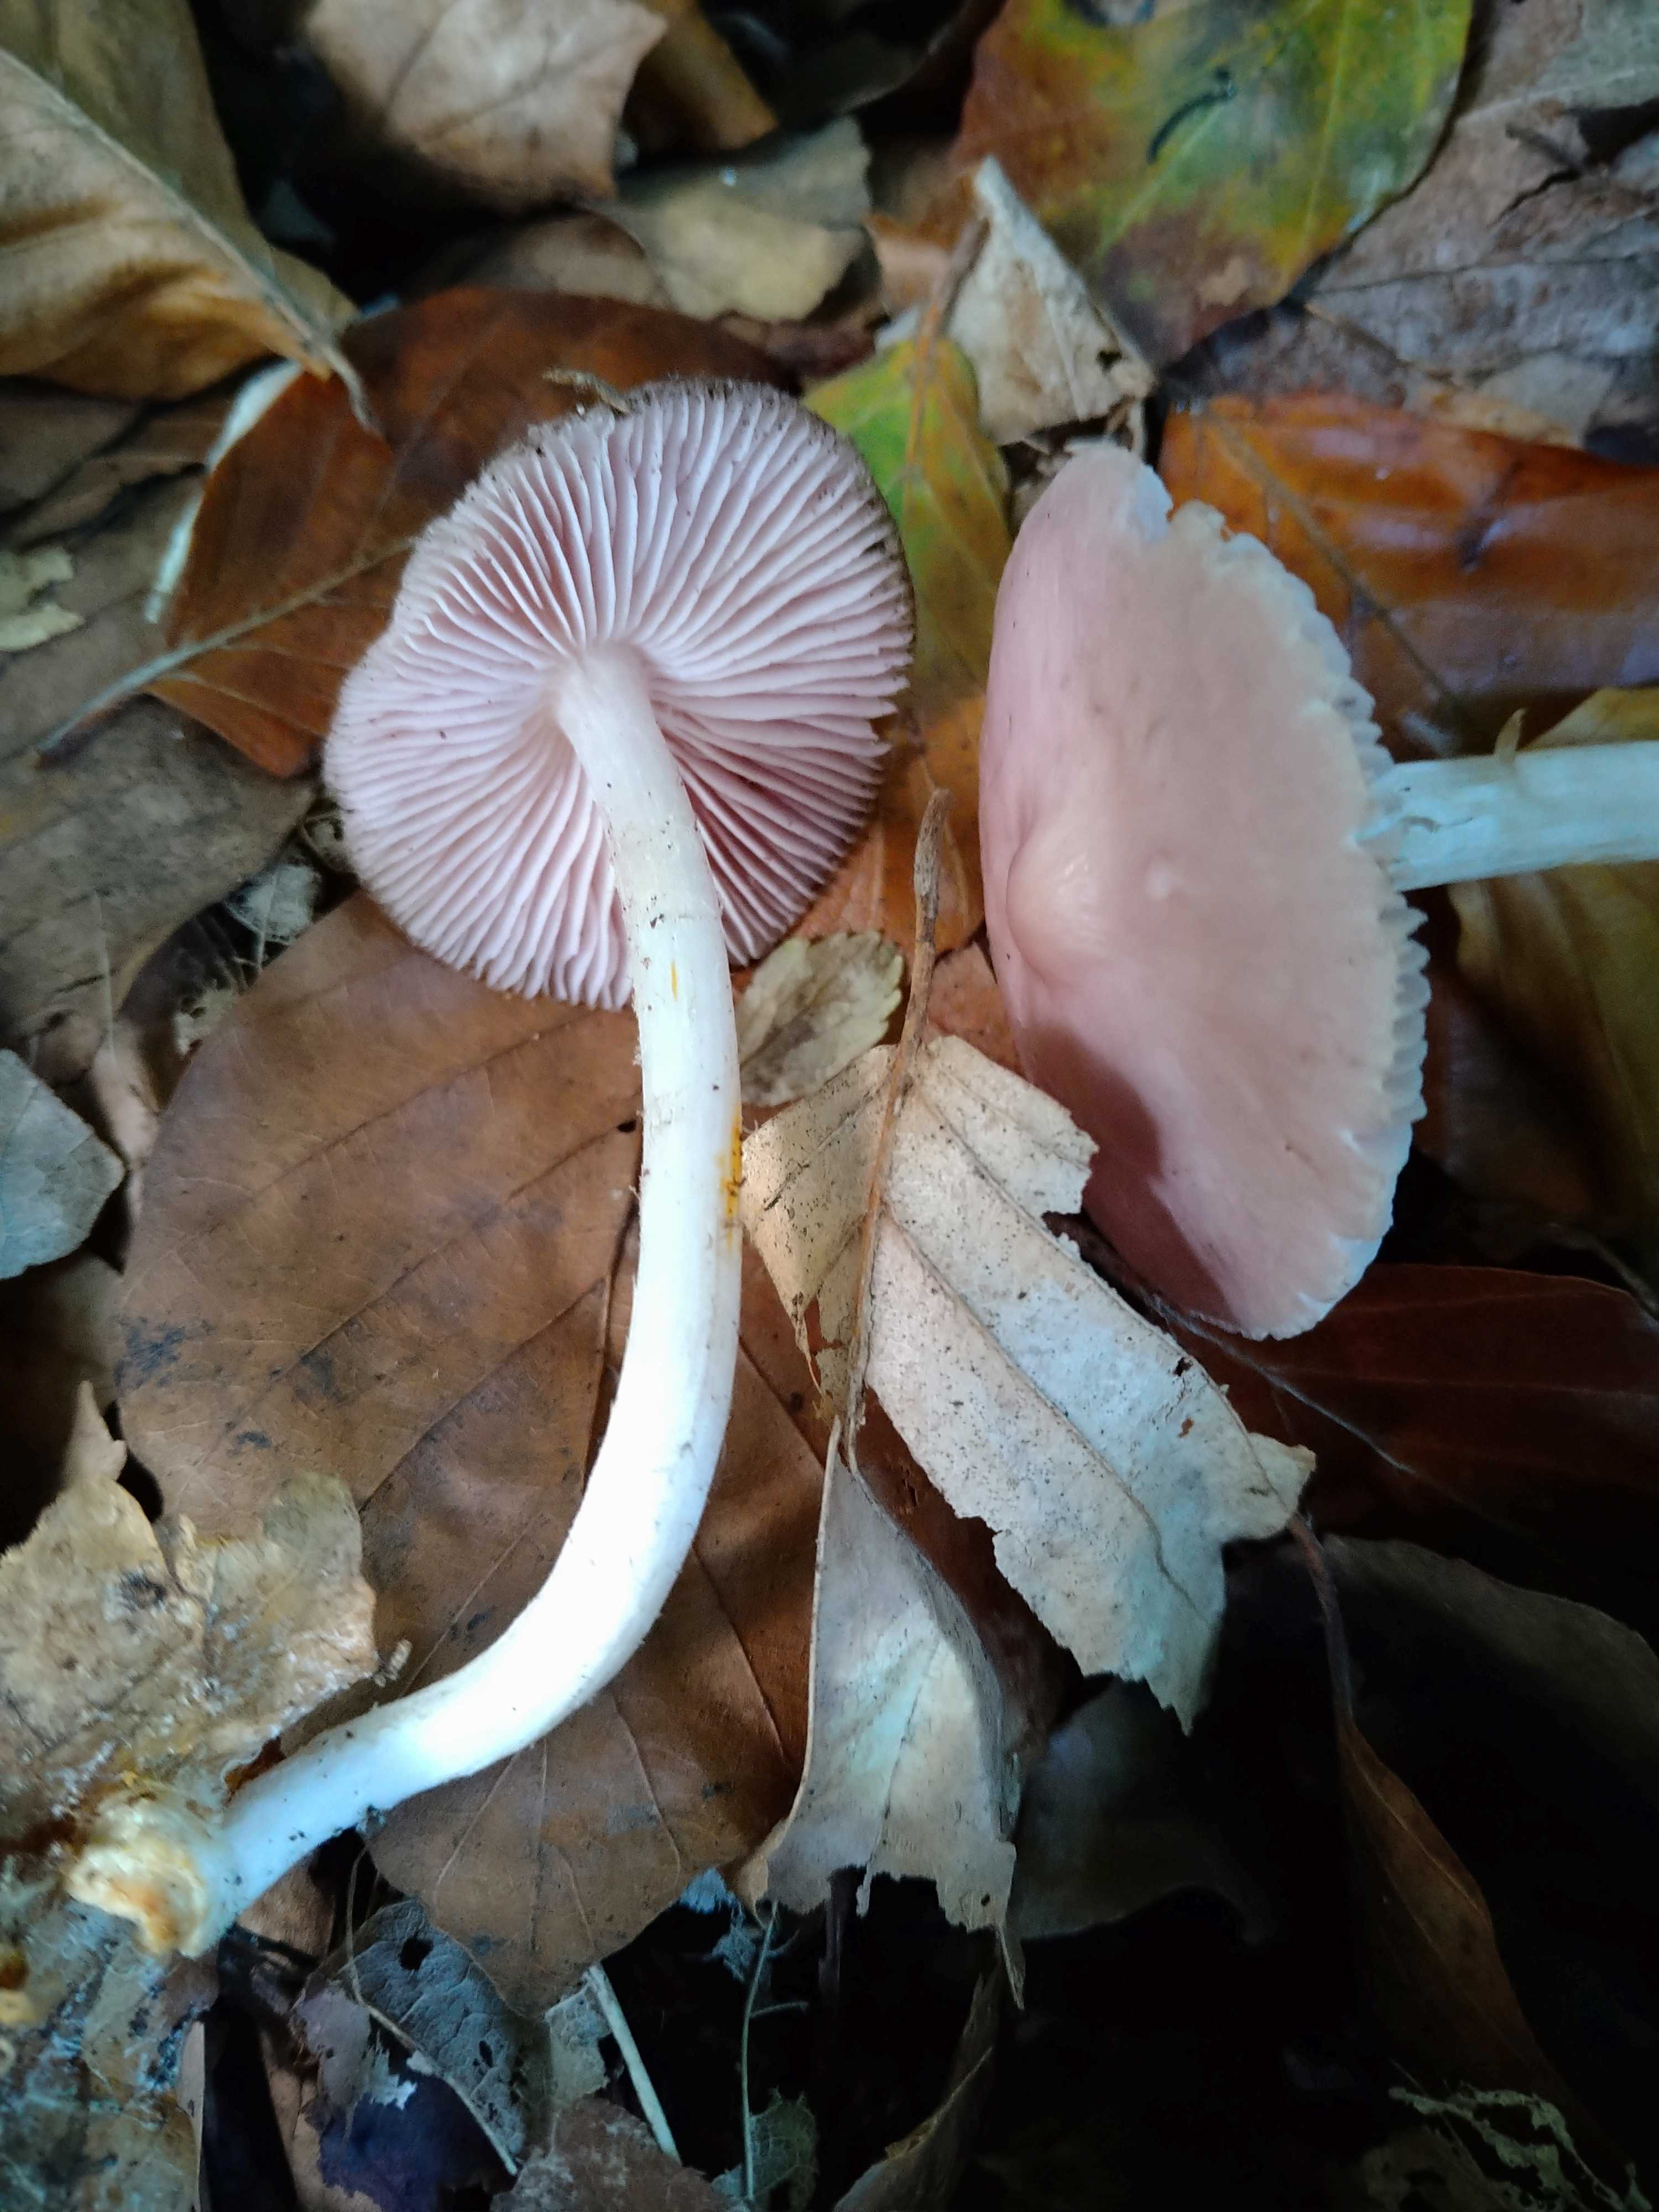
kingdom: Fungi
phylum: Basidiomycota
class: Agaricomycetes
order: Agaricales
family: Mycenaceae
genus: Mycena
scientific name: Mycena rosea
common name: rosa huesvamp
